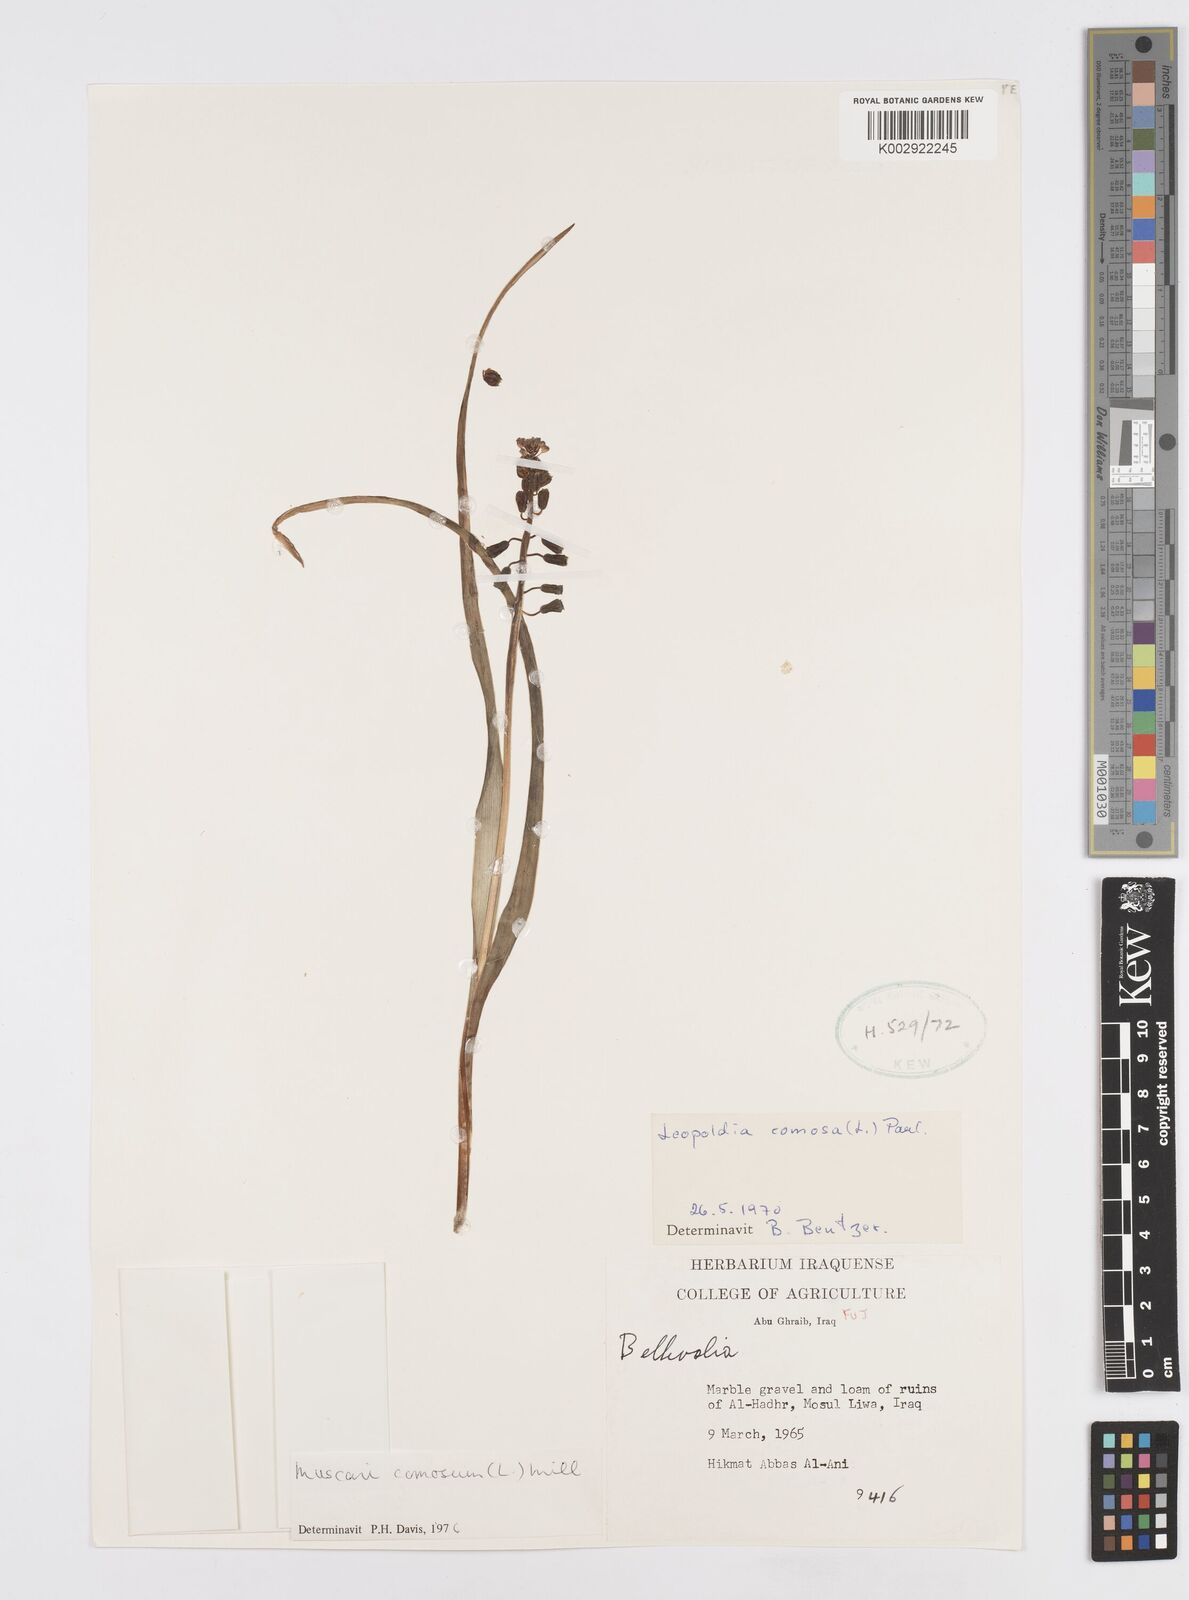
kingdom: Plantae
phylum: Tracheophyta
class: Liliopsida
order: Asparagales
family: Asparagaceae
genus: Muscari
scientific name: Muscari comosum
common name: Tassel hyacinth
